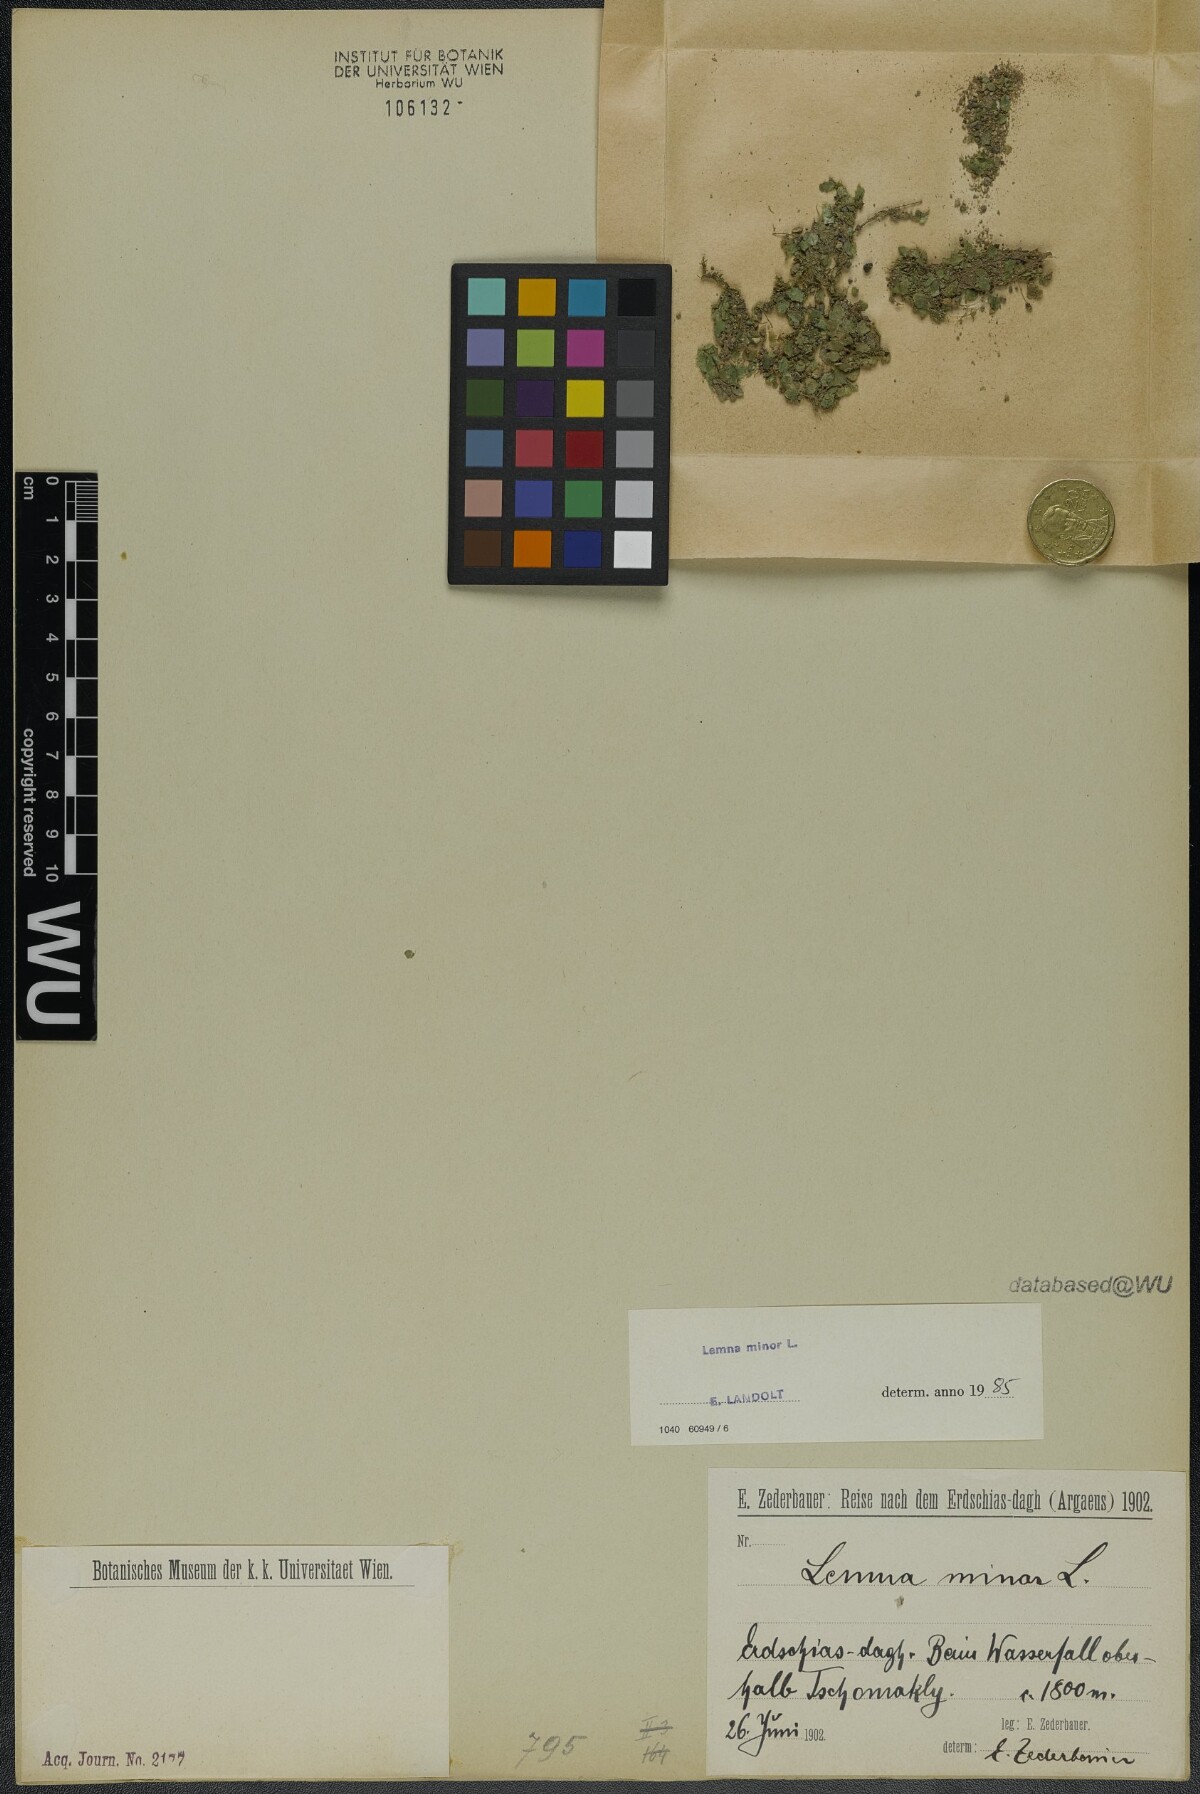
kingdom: Plantae
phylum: Tracheophyta
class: Liliopsida
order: Alismatales
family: Araceae
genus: Lemna
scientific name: Lemna minor
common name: Common duckweed
